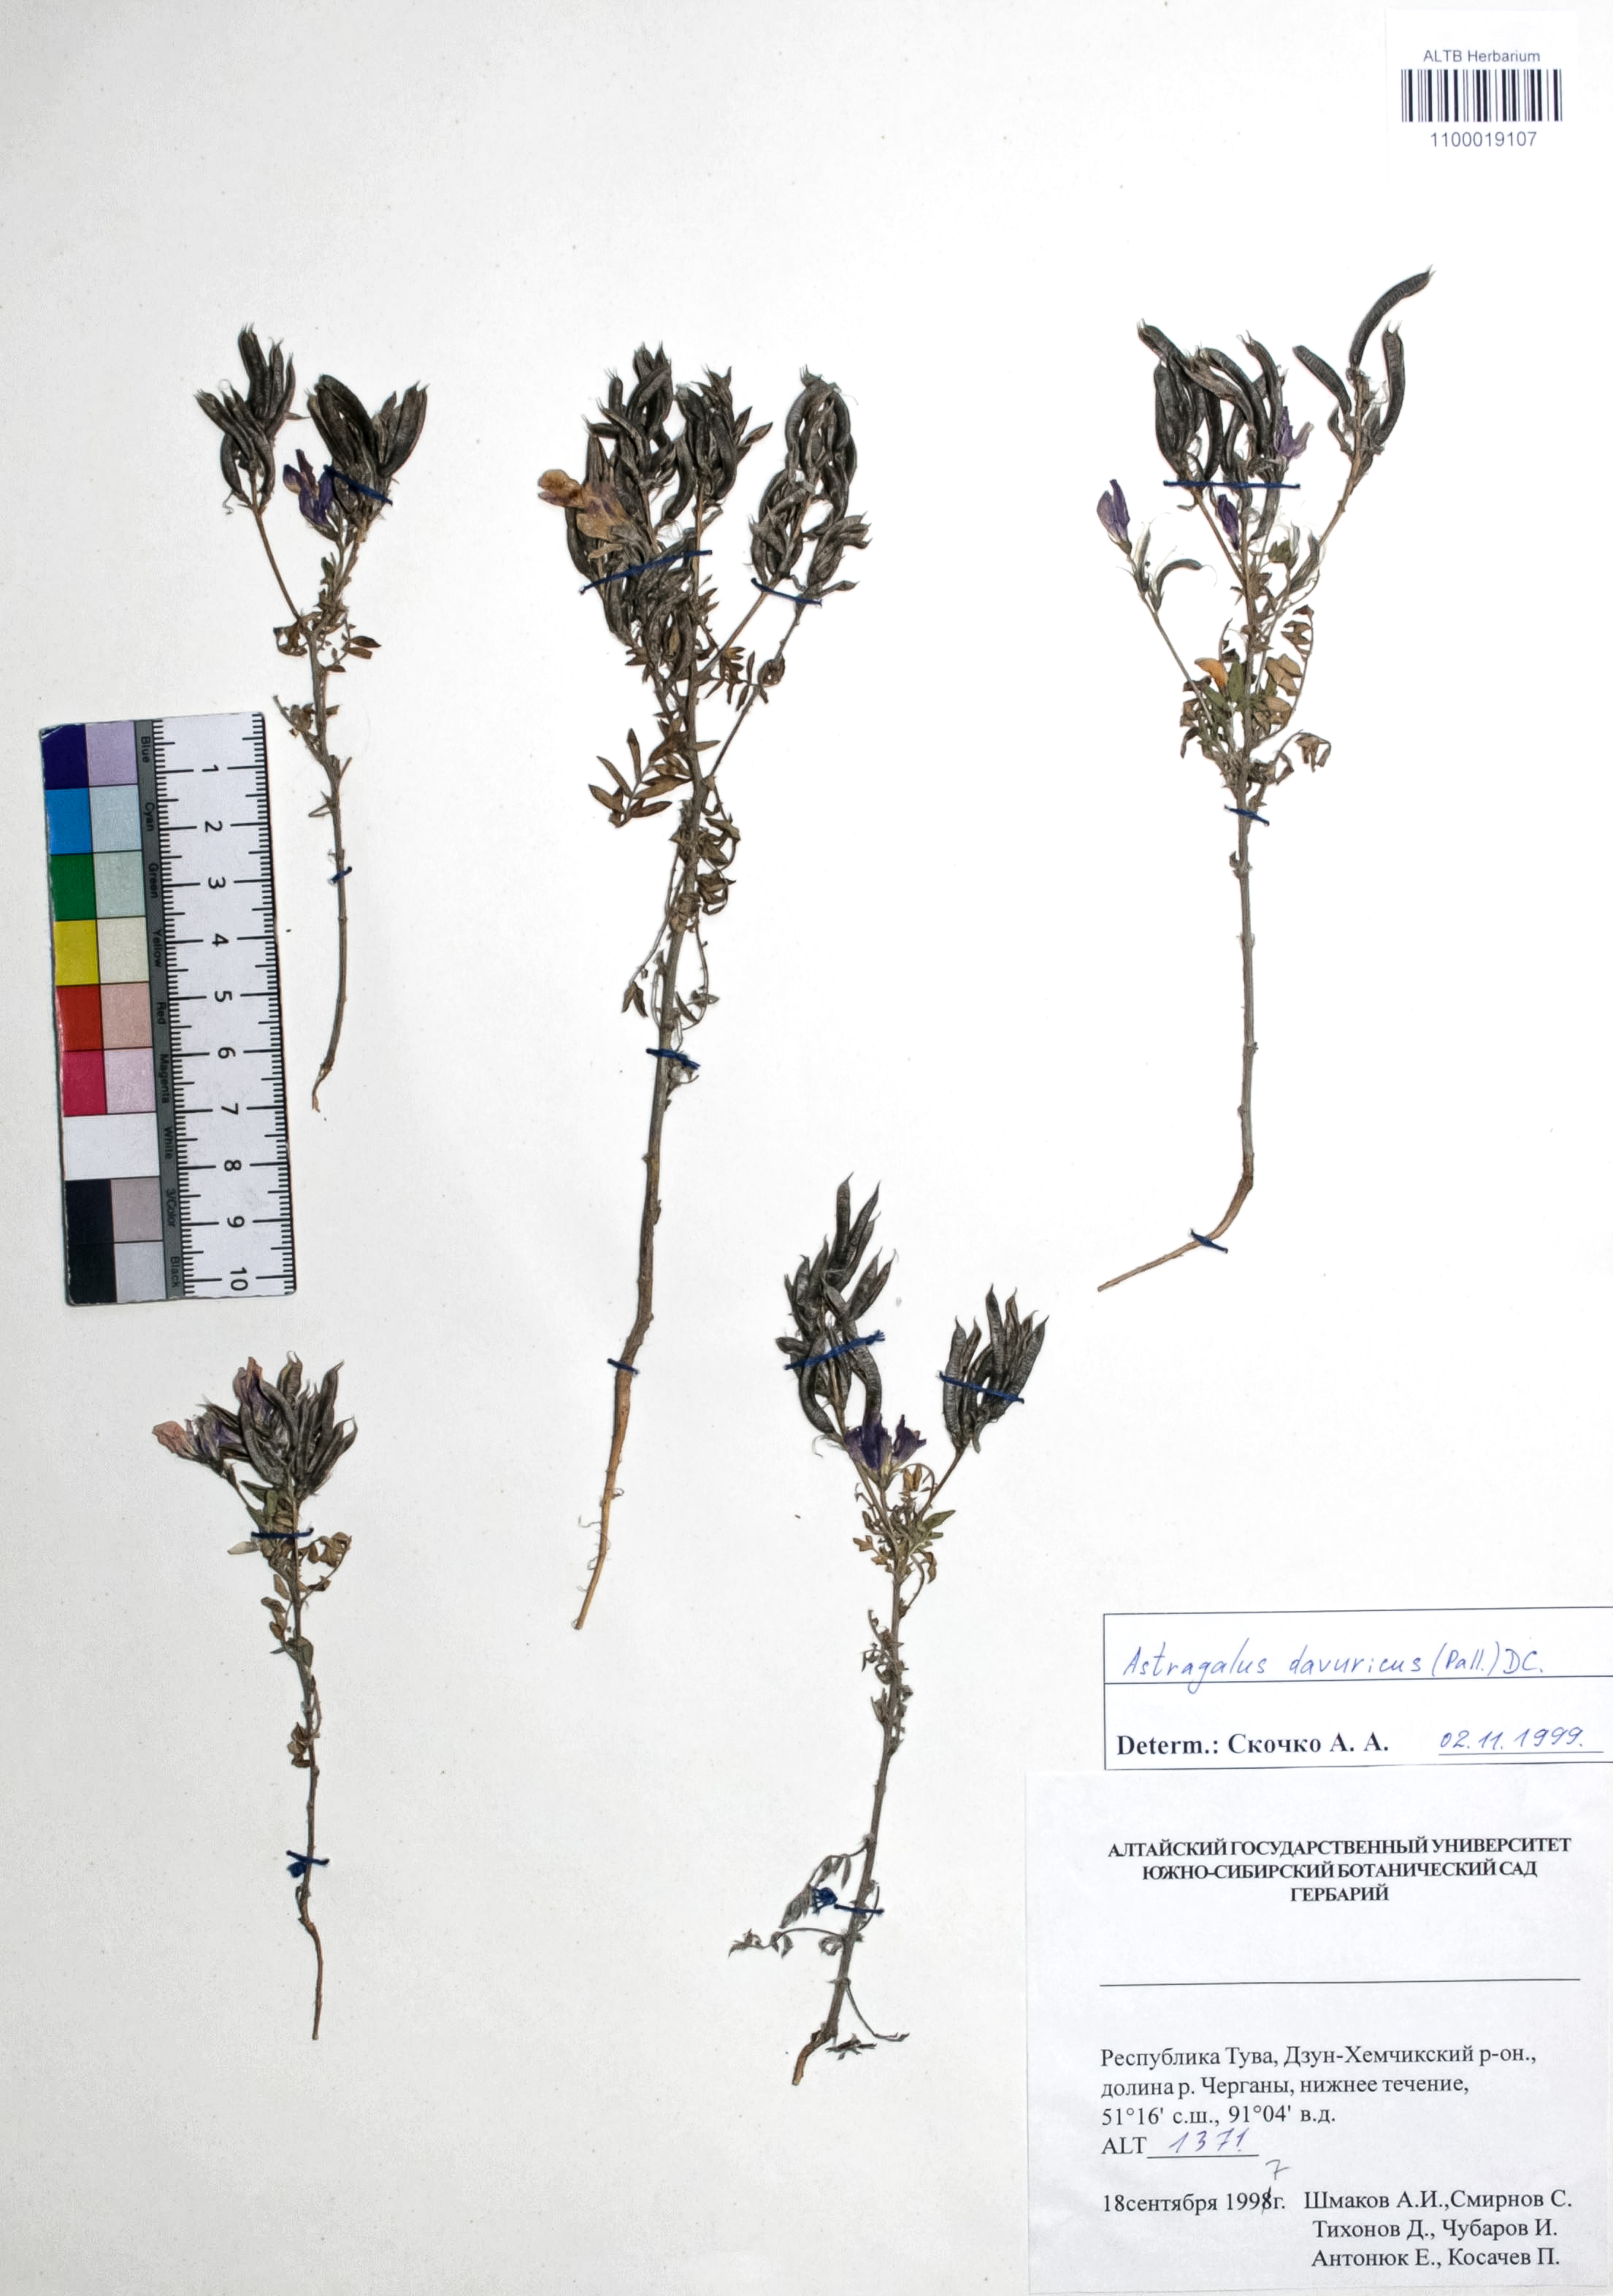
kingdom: Plantae
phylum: Tracheophyta
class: Magnoliopsida
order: Fabales
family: Fabaceae
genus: Astragalus
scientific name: Astragalus davuricus
